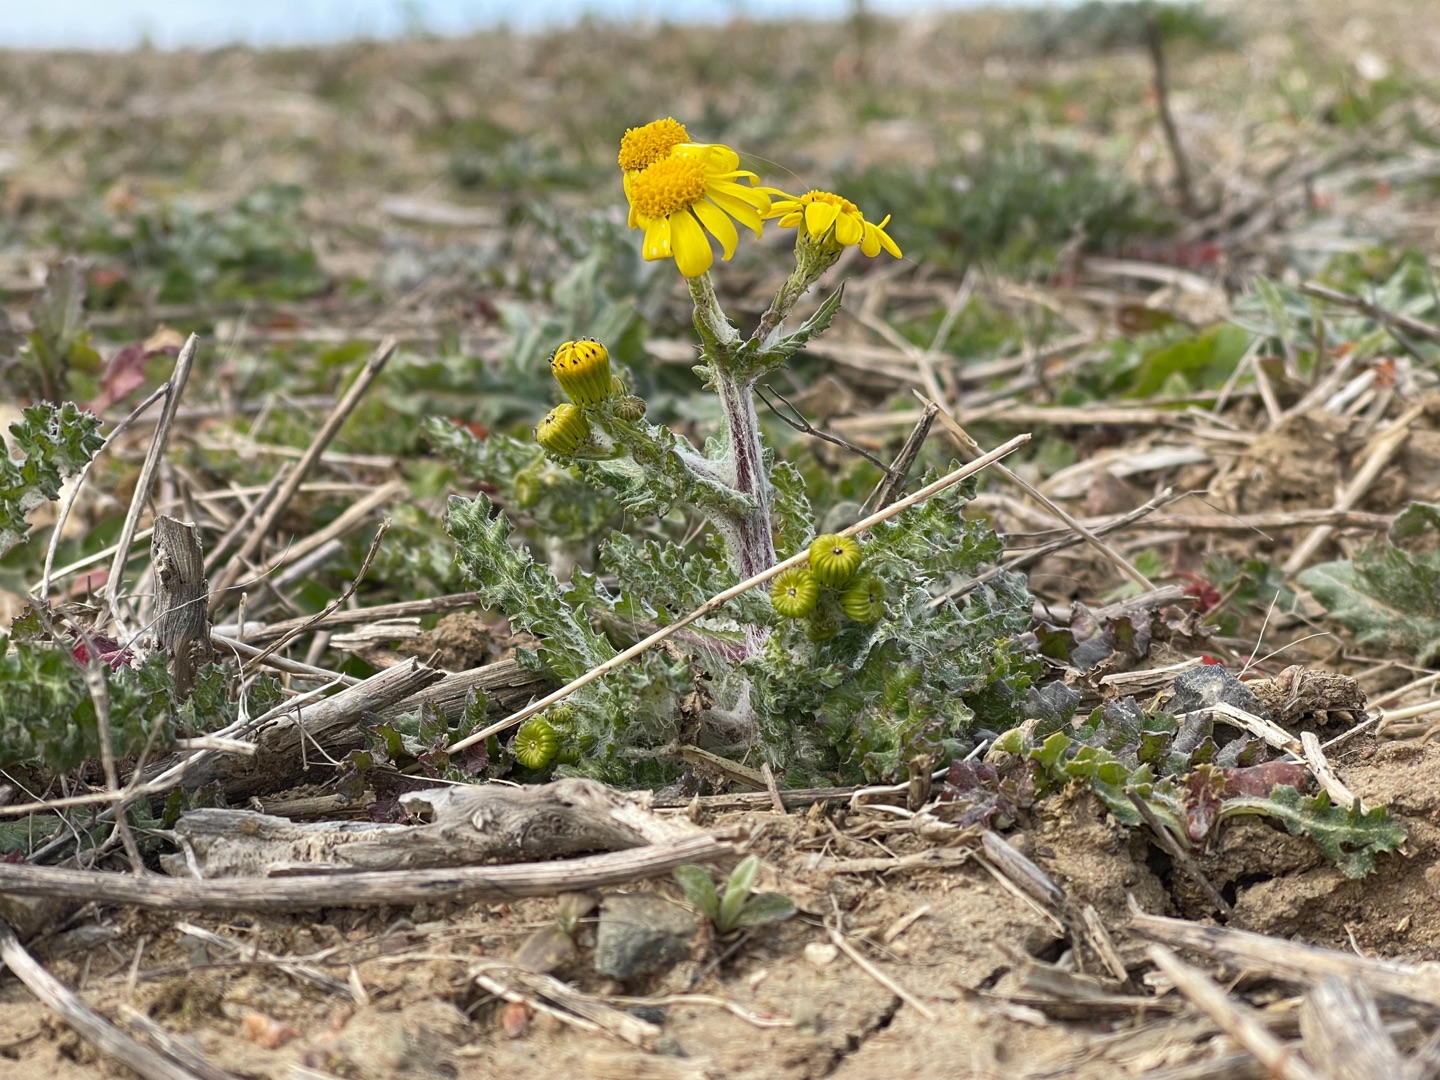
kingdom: Plantae
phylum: Tracheophyta
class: Magnoliopsida
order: Asterales
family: Asteraceae
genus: Senecio
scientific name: Senecio leucanthemifolius
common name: Vår-brandbæger
